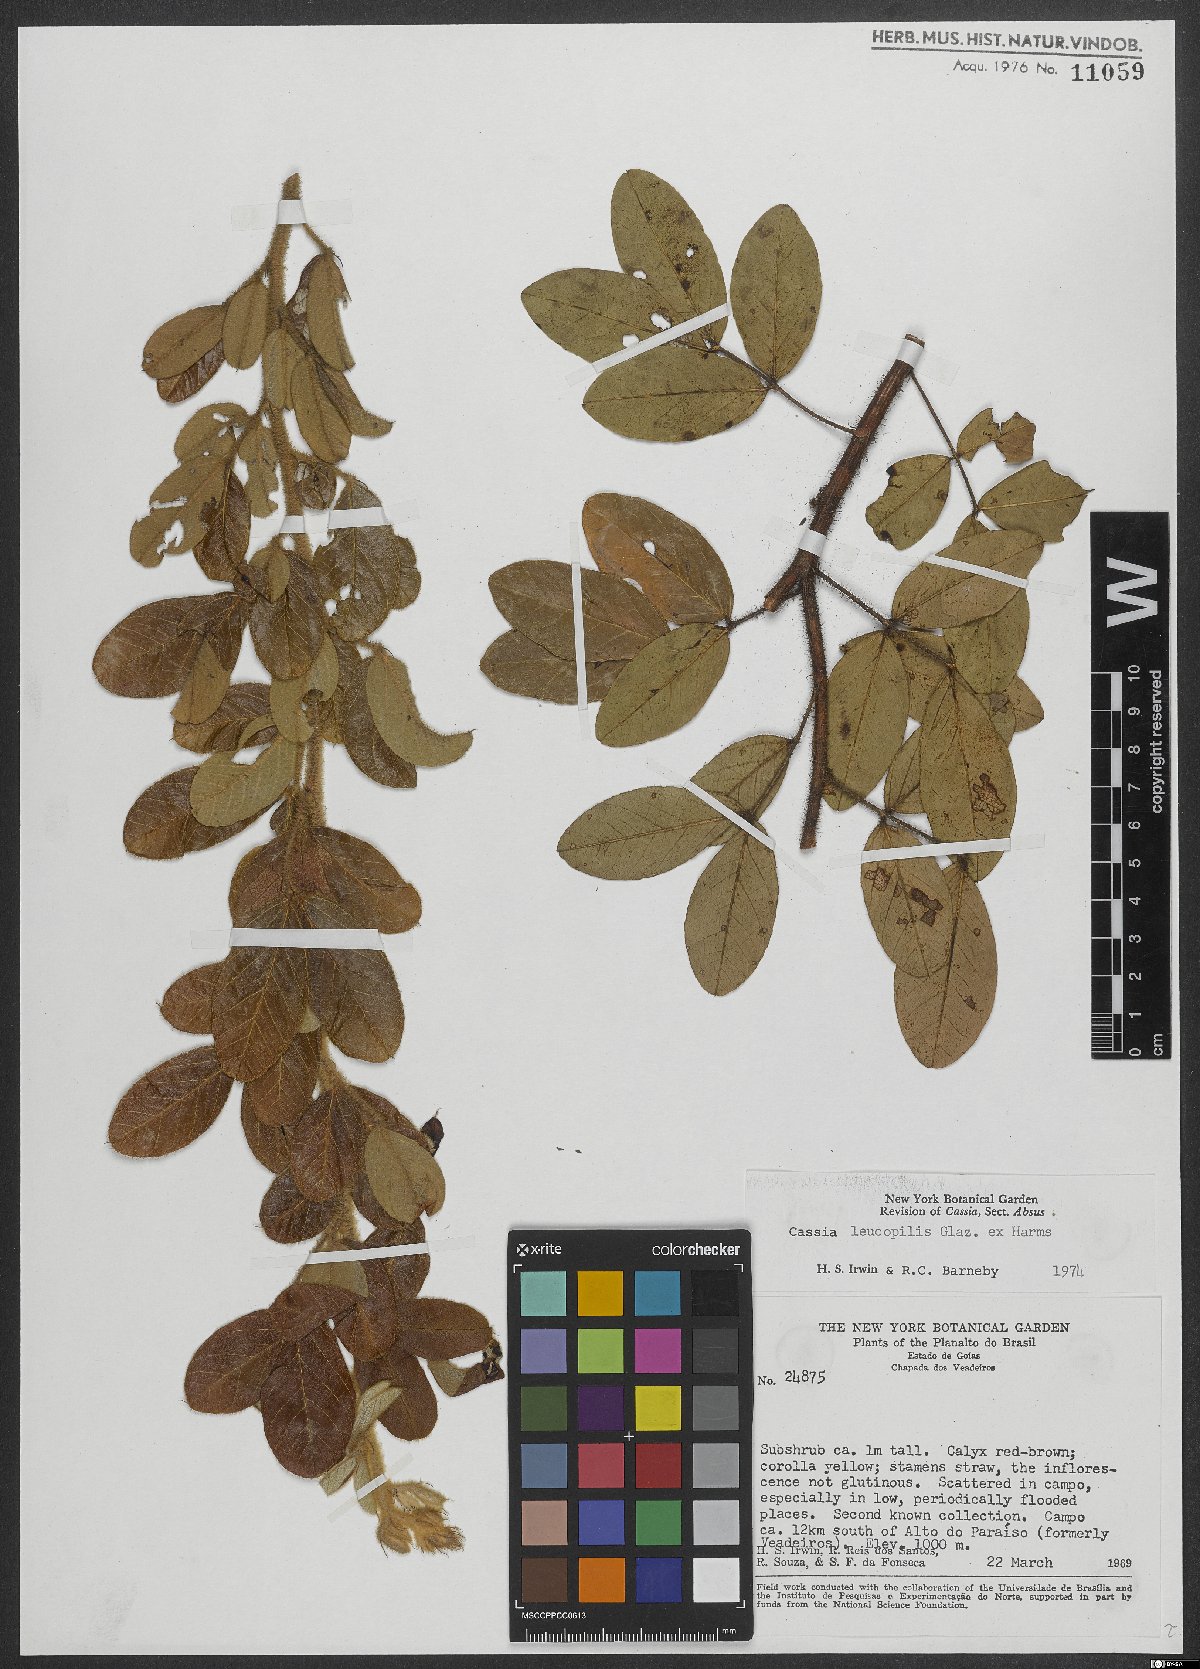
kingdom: Plantae
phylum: Tracheophyta
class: Magnoliopsida
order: Fabales
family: Fabaceae
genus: Chamaecrista
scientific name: Chamaecrista leucopilis
